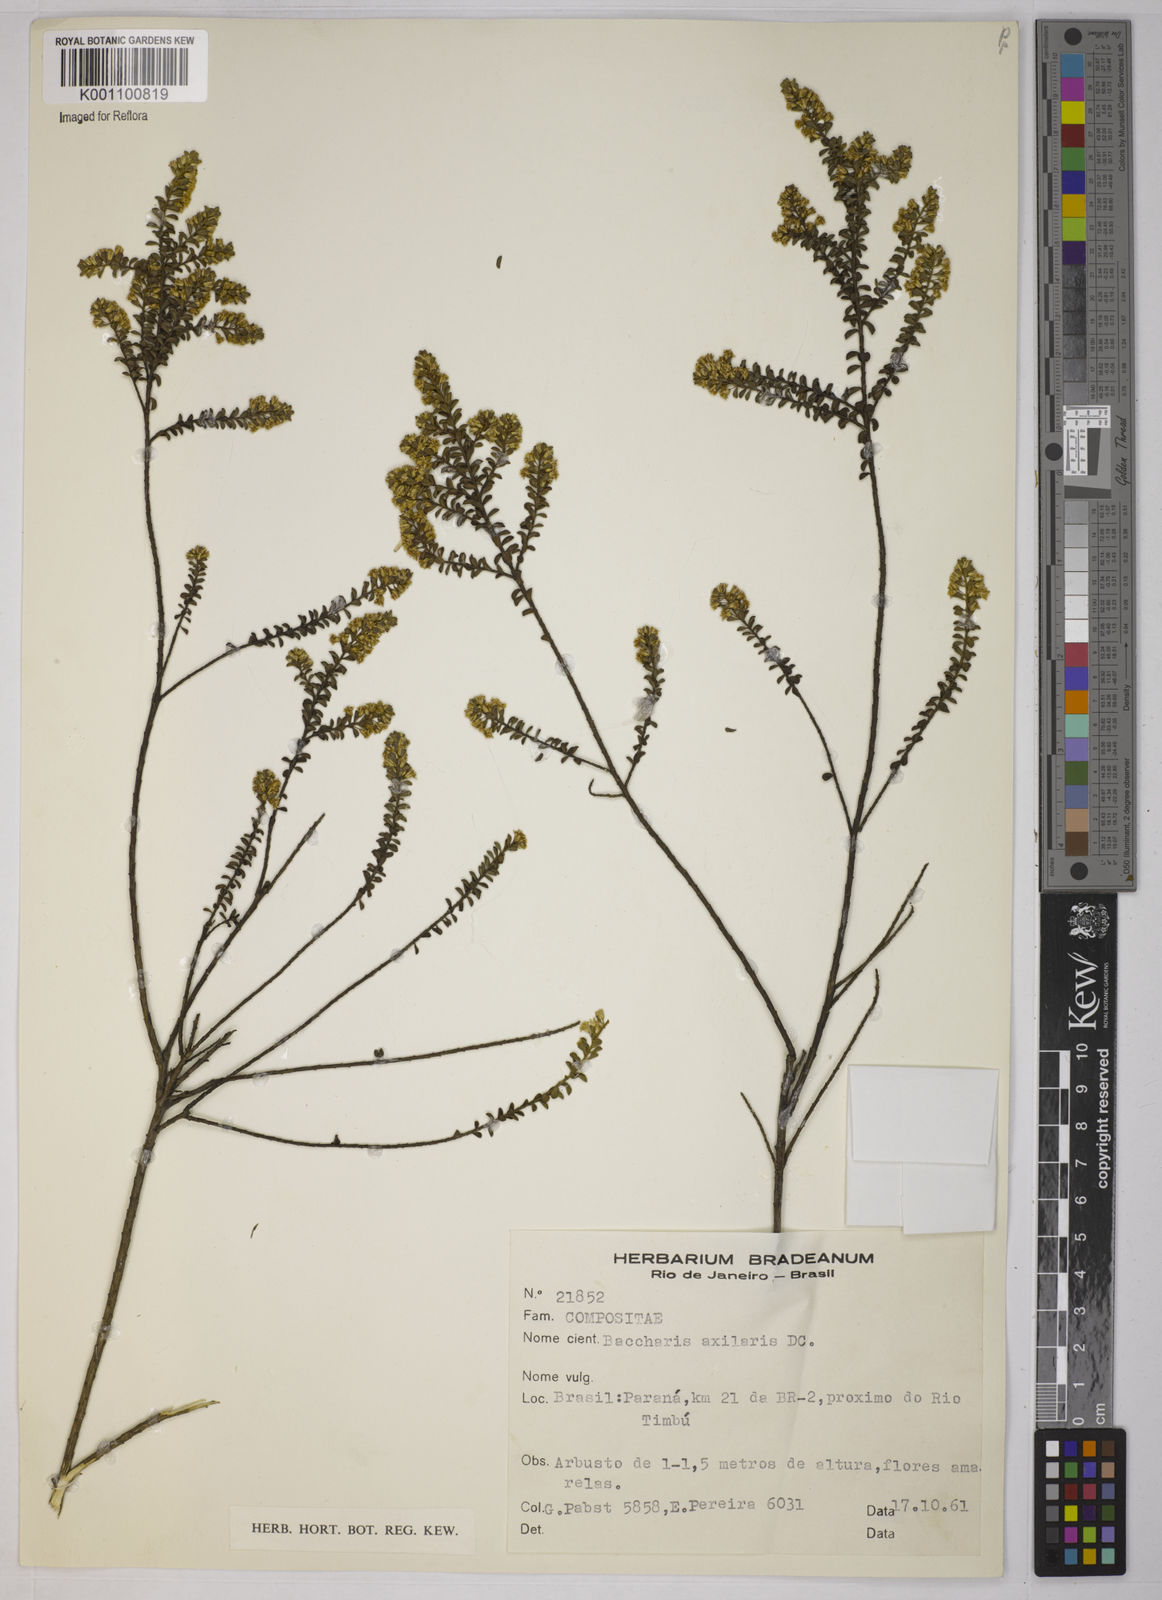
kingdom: Plantae
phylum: Tracheophyta
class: Magnoliopsida
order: Asterales
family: Asteraceae
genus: Baccharis
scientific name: Baccharis axillaris
